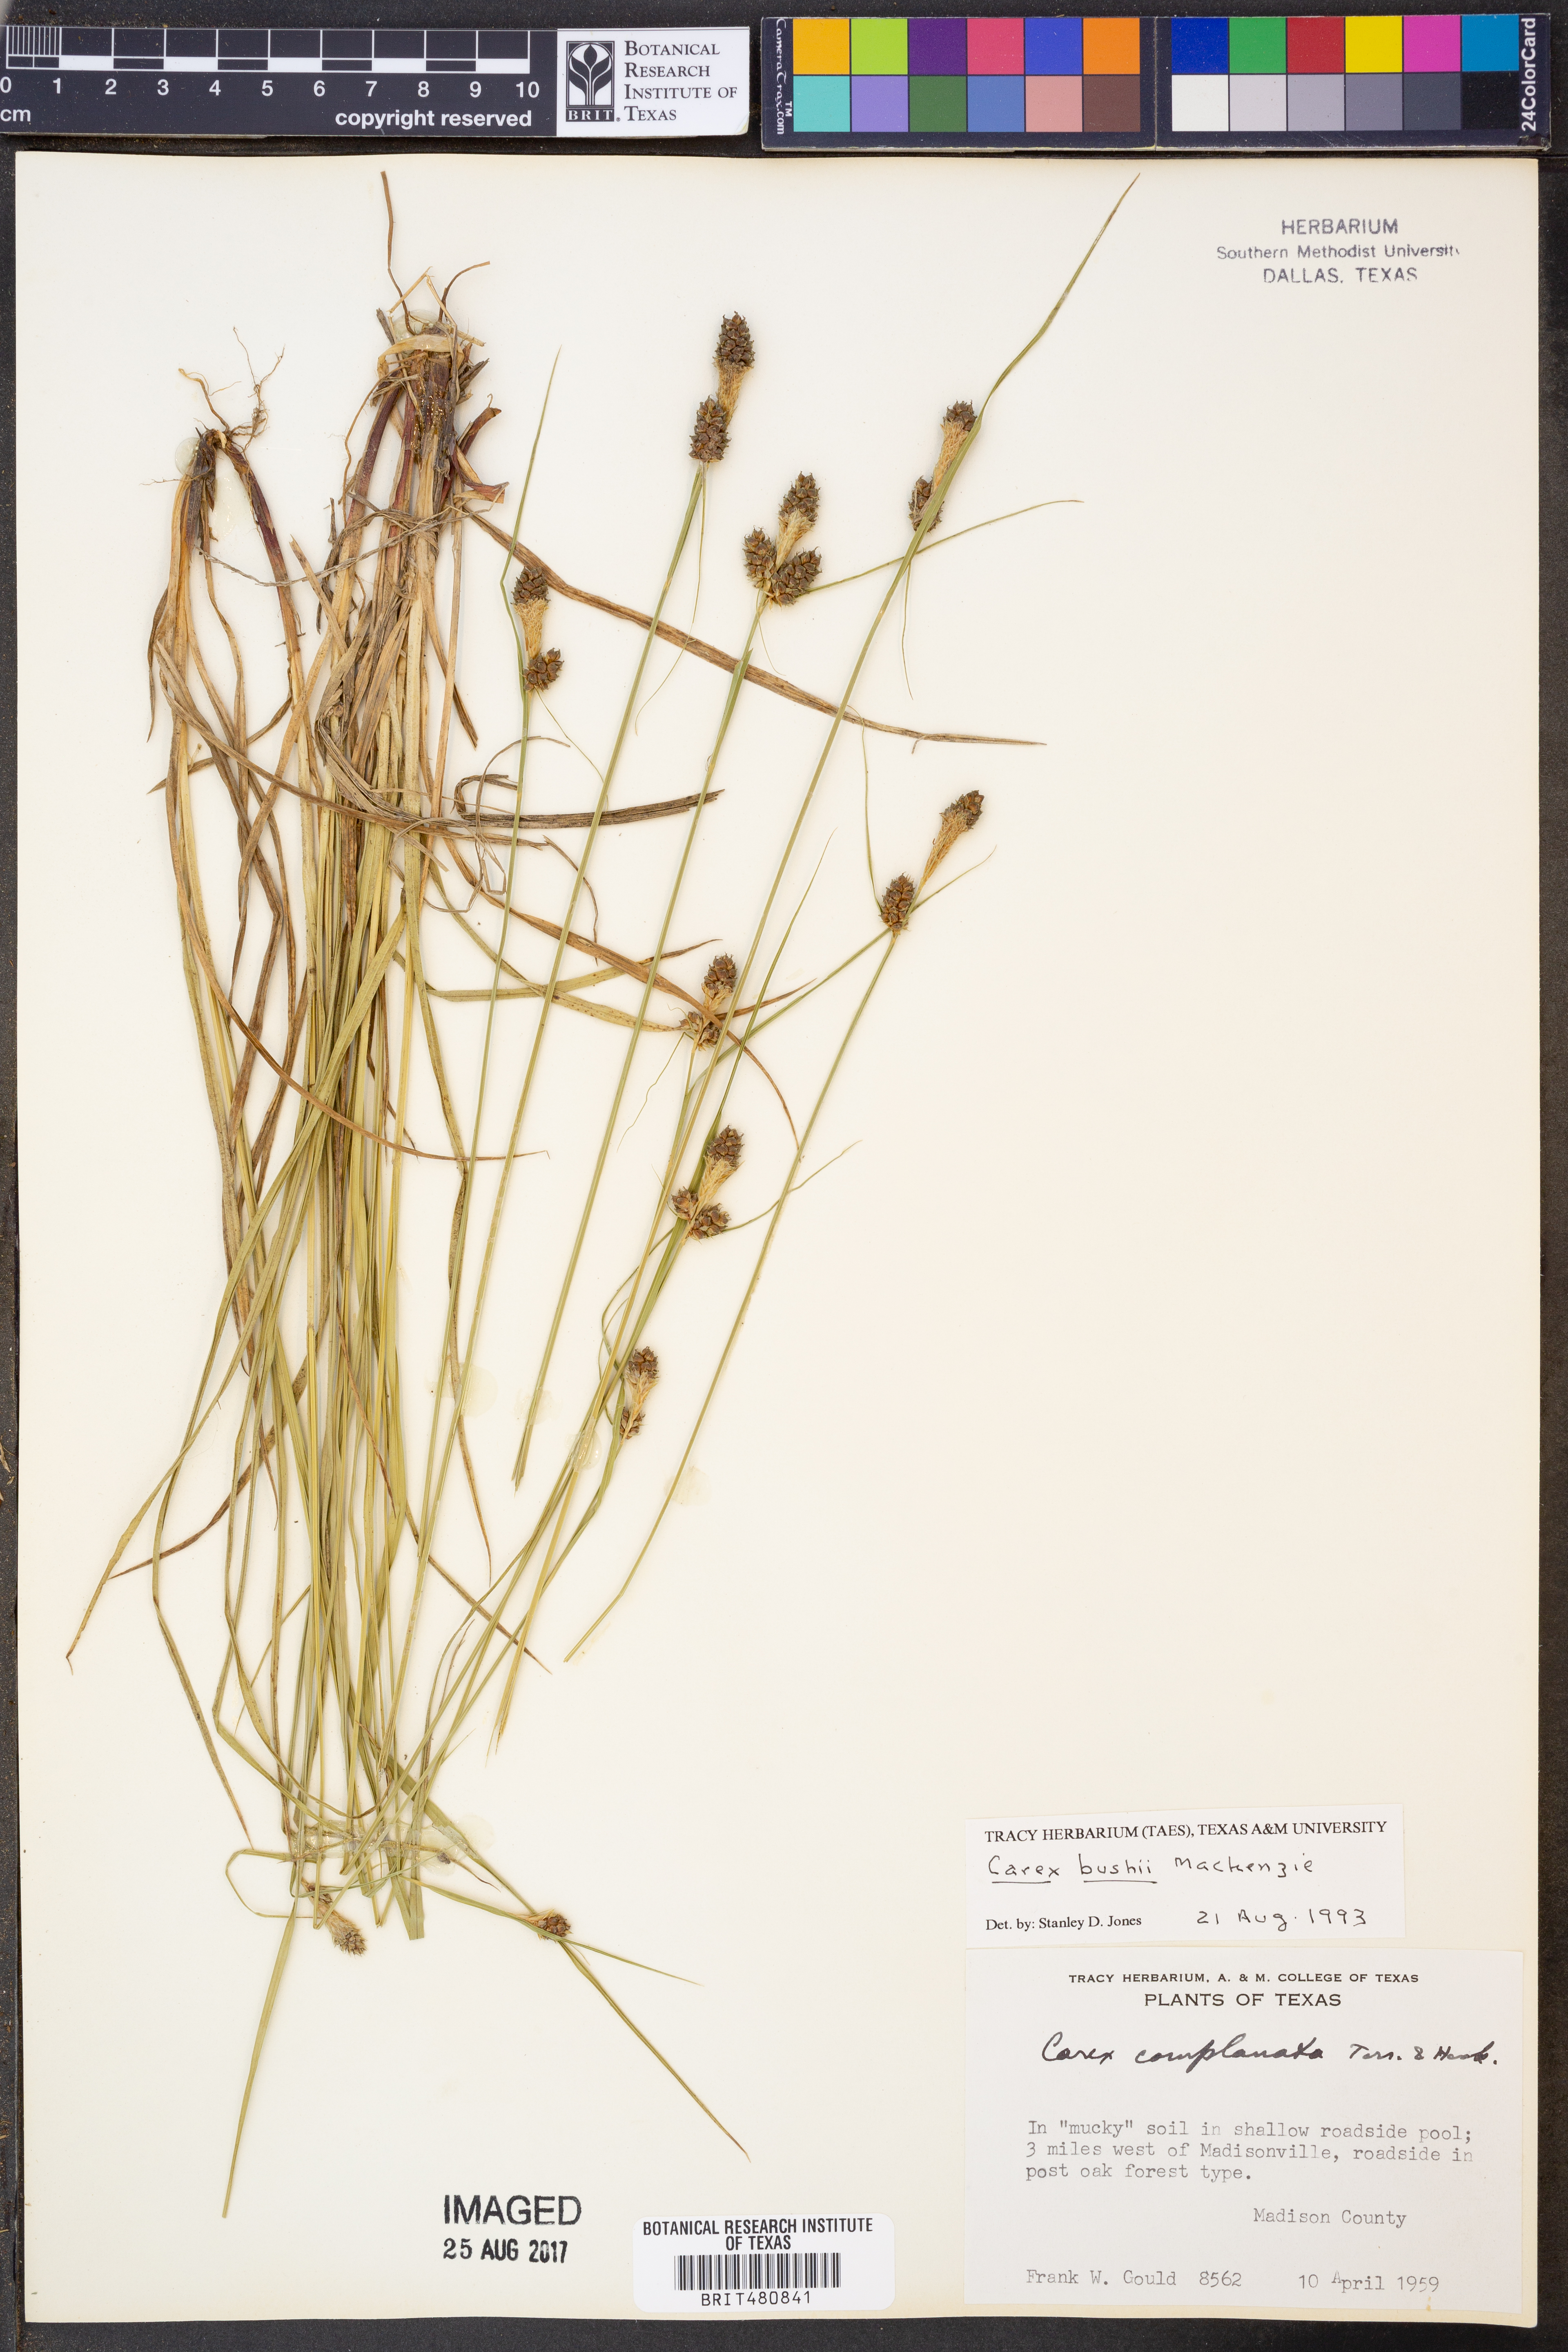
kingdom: Plantae
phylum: Tracheophyta
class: Liliopsida
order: Poales
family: Cyperaceae
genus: Carex
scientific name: Carex bushii
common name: Bush's sedge
